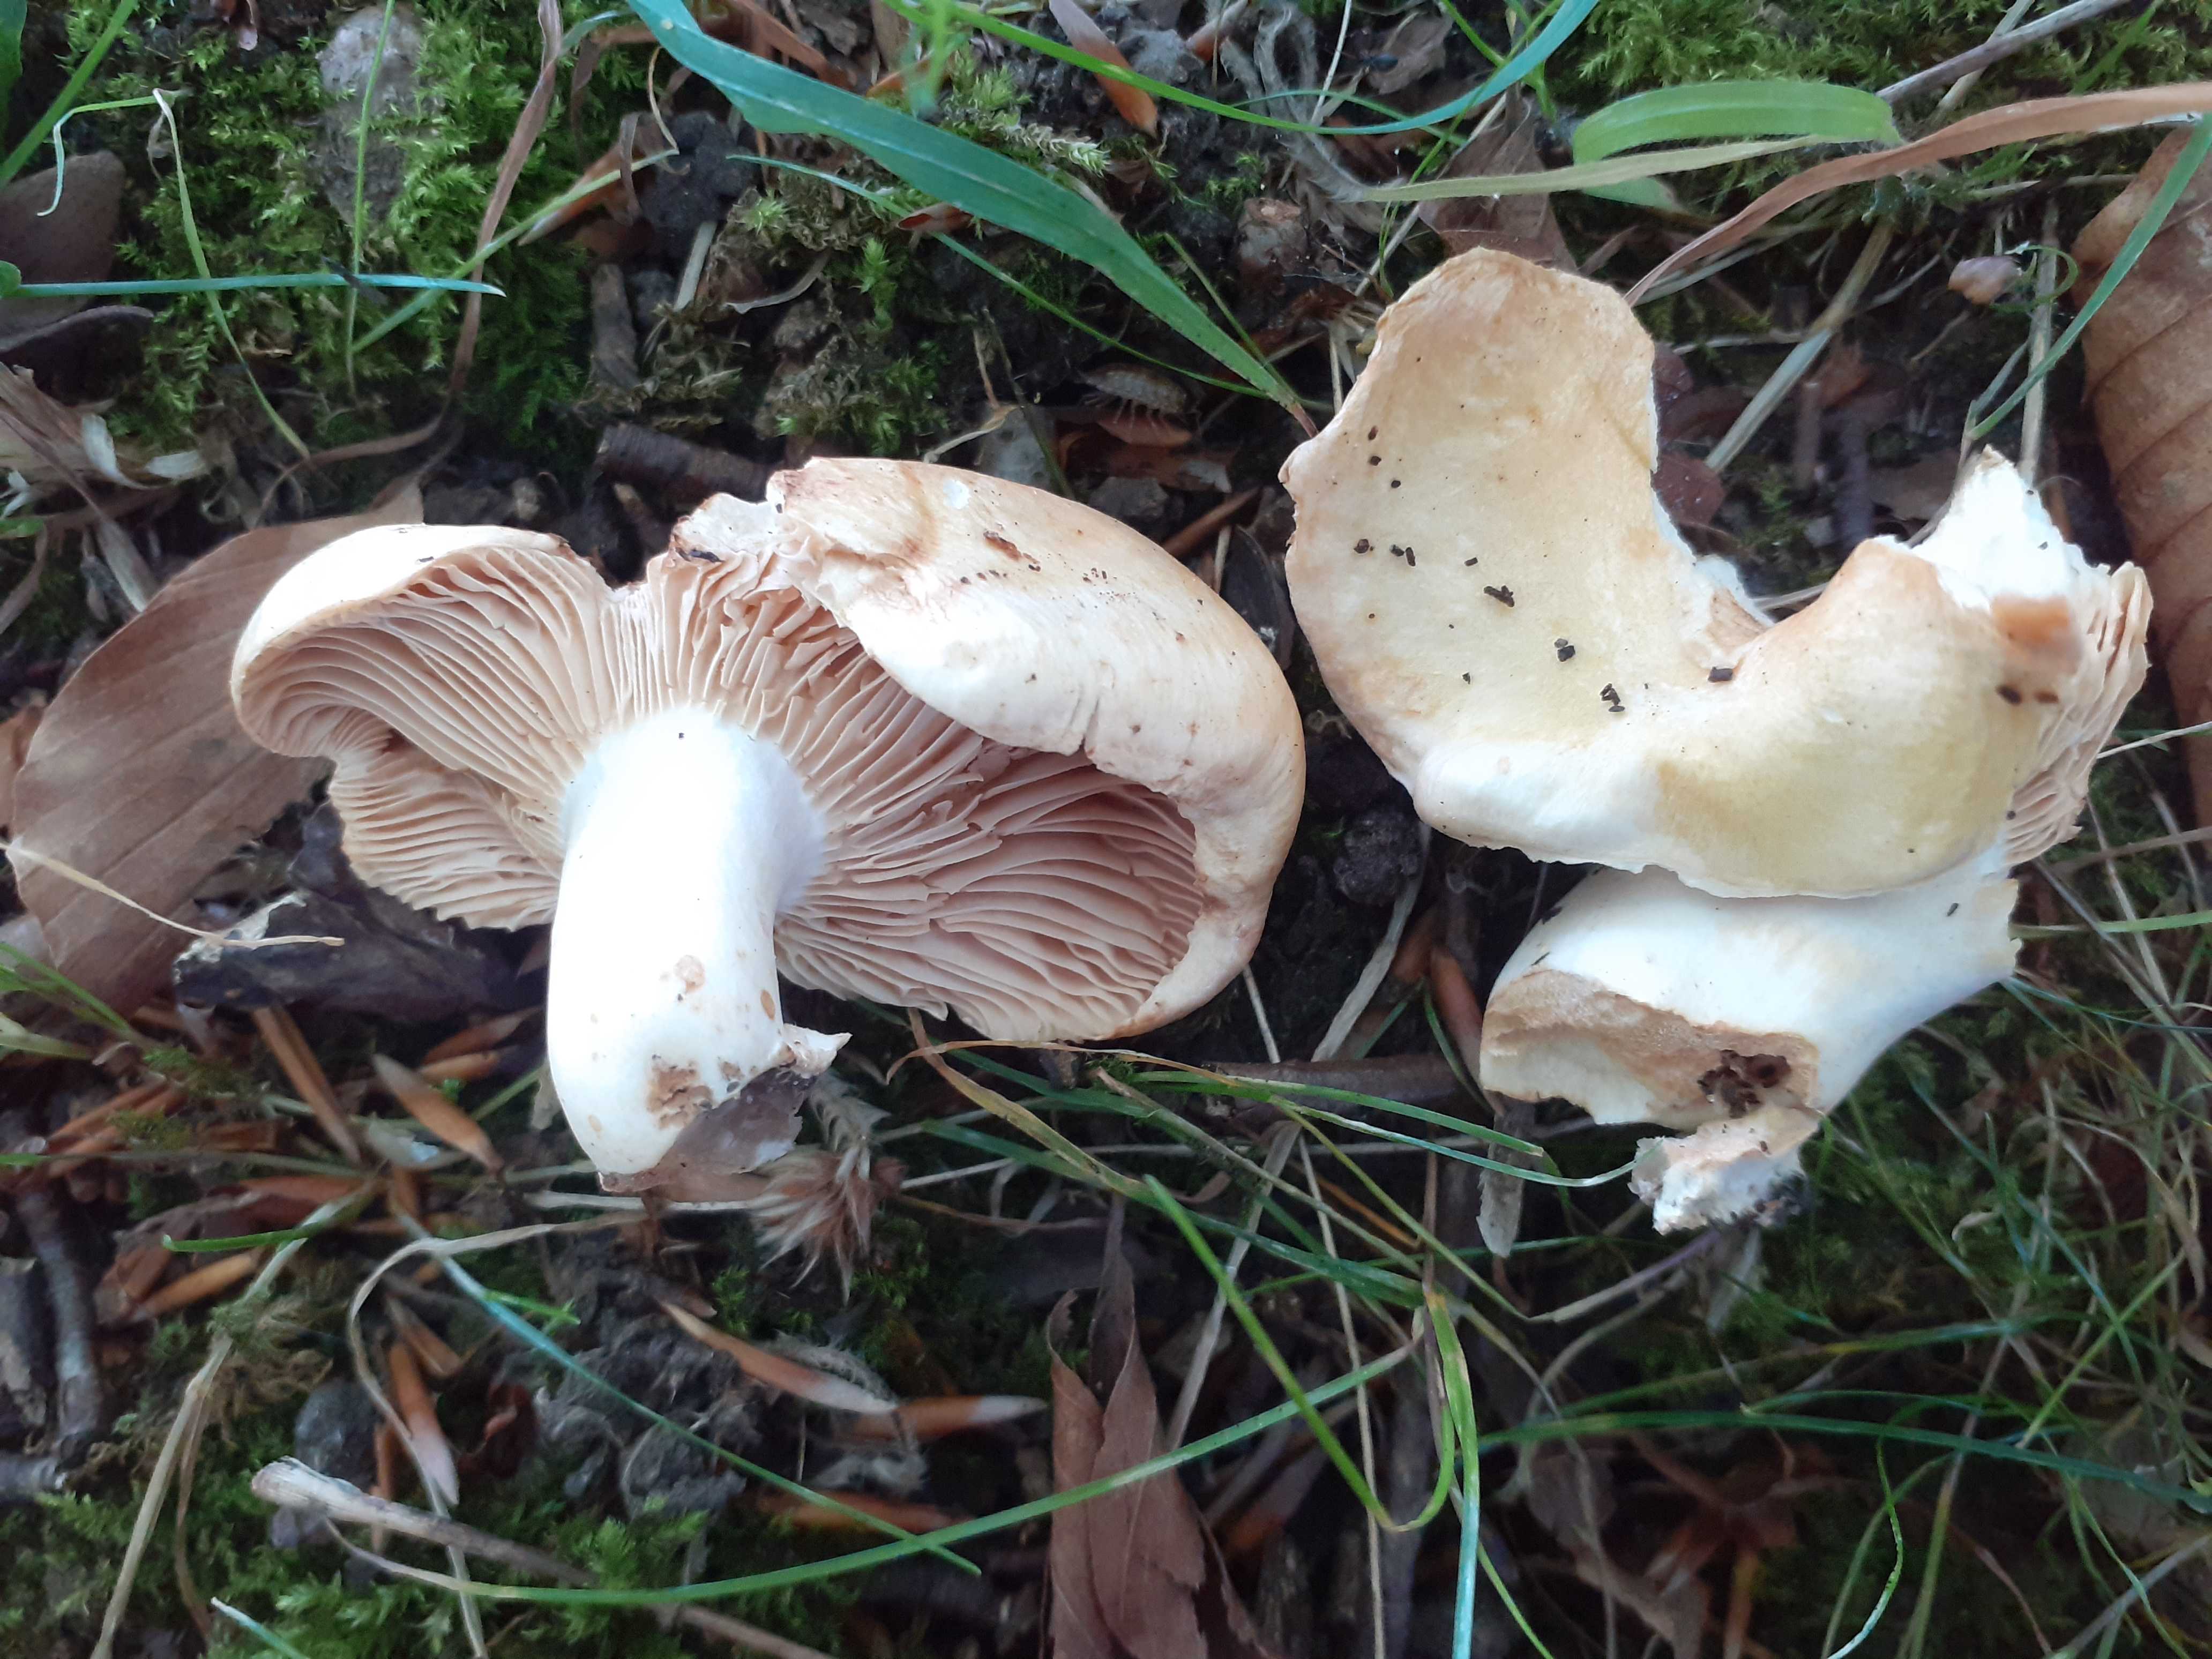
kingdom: Fungi
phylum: Basidiomycota
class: Agaricomycetes
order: Russulales
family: Russulaceae
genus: Lactarius
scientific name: Lactarius acerrimus
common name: brændende mælkehat
